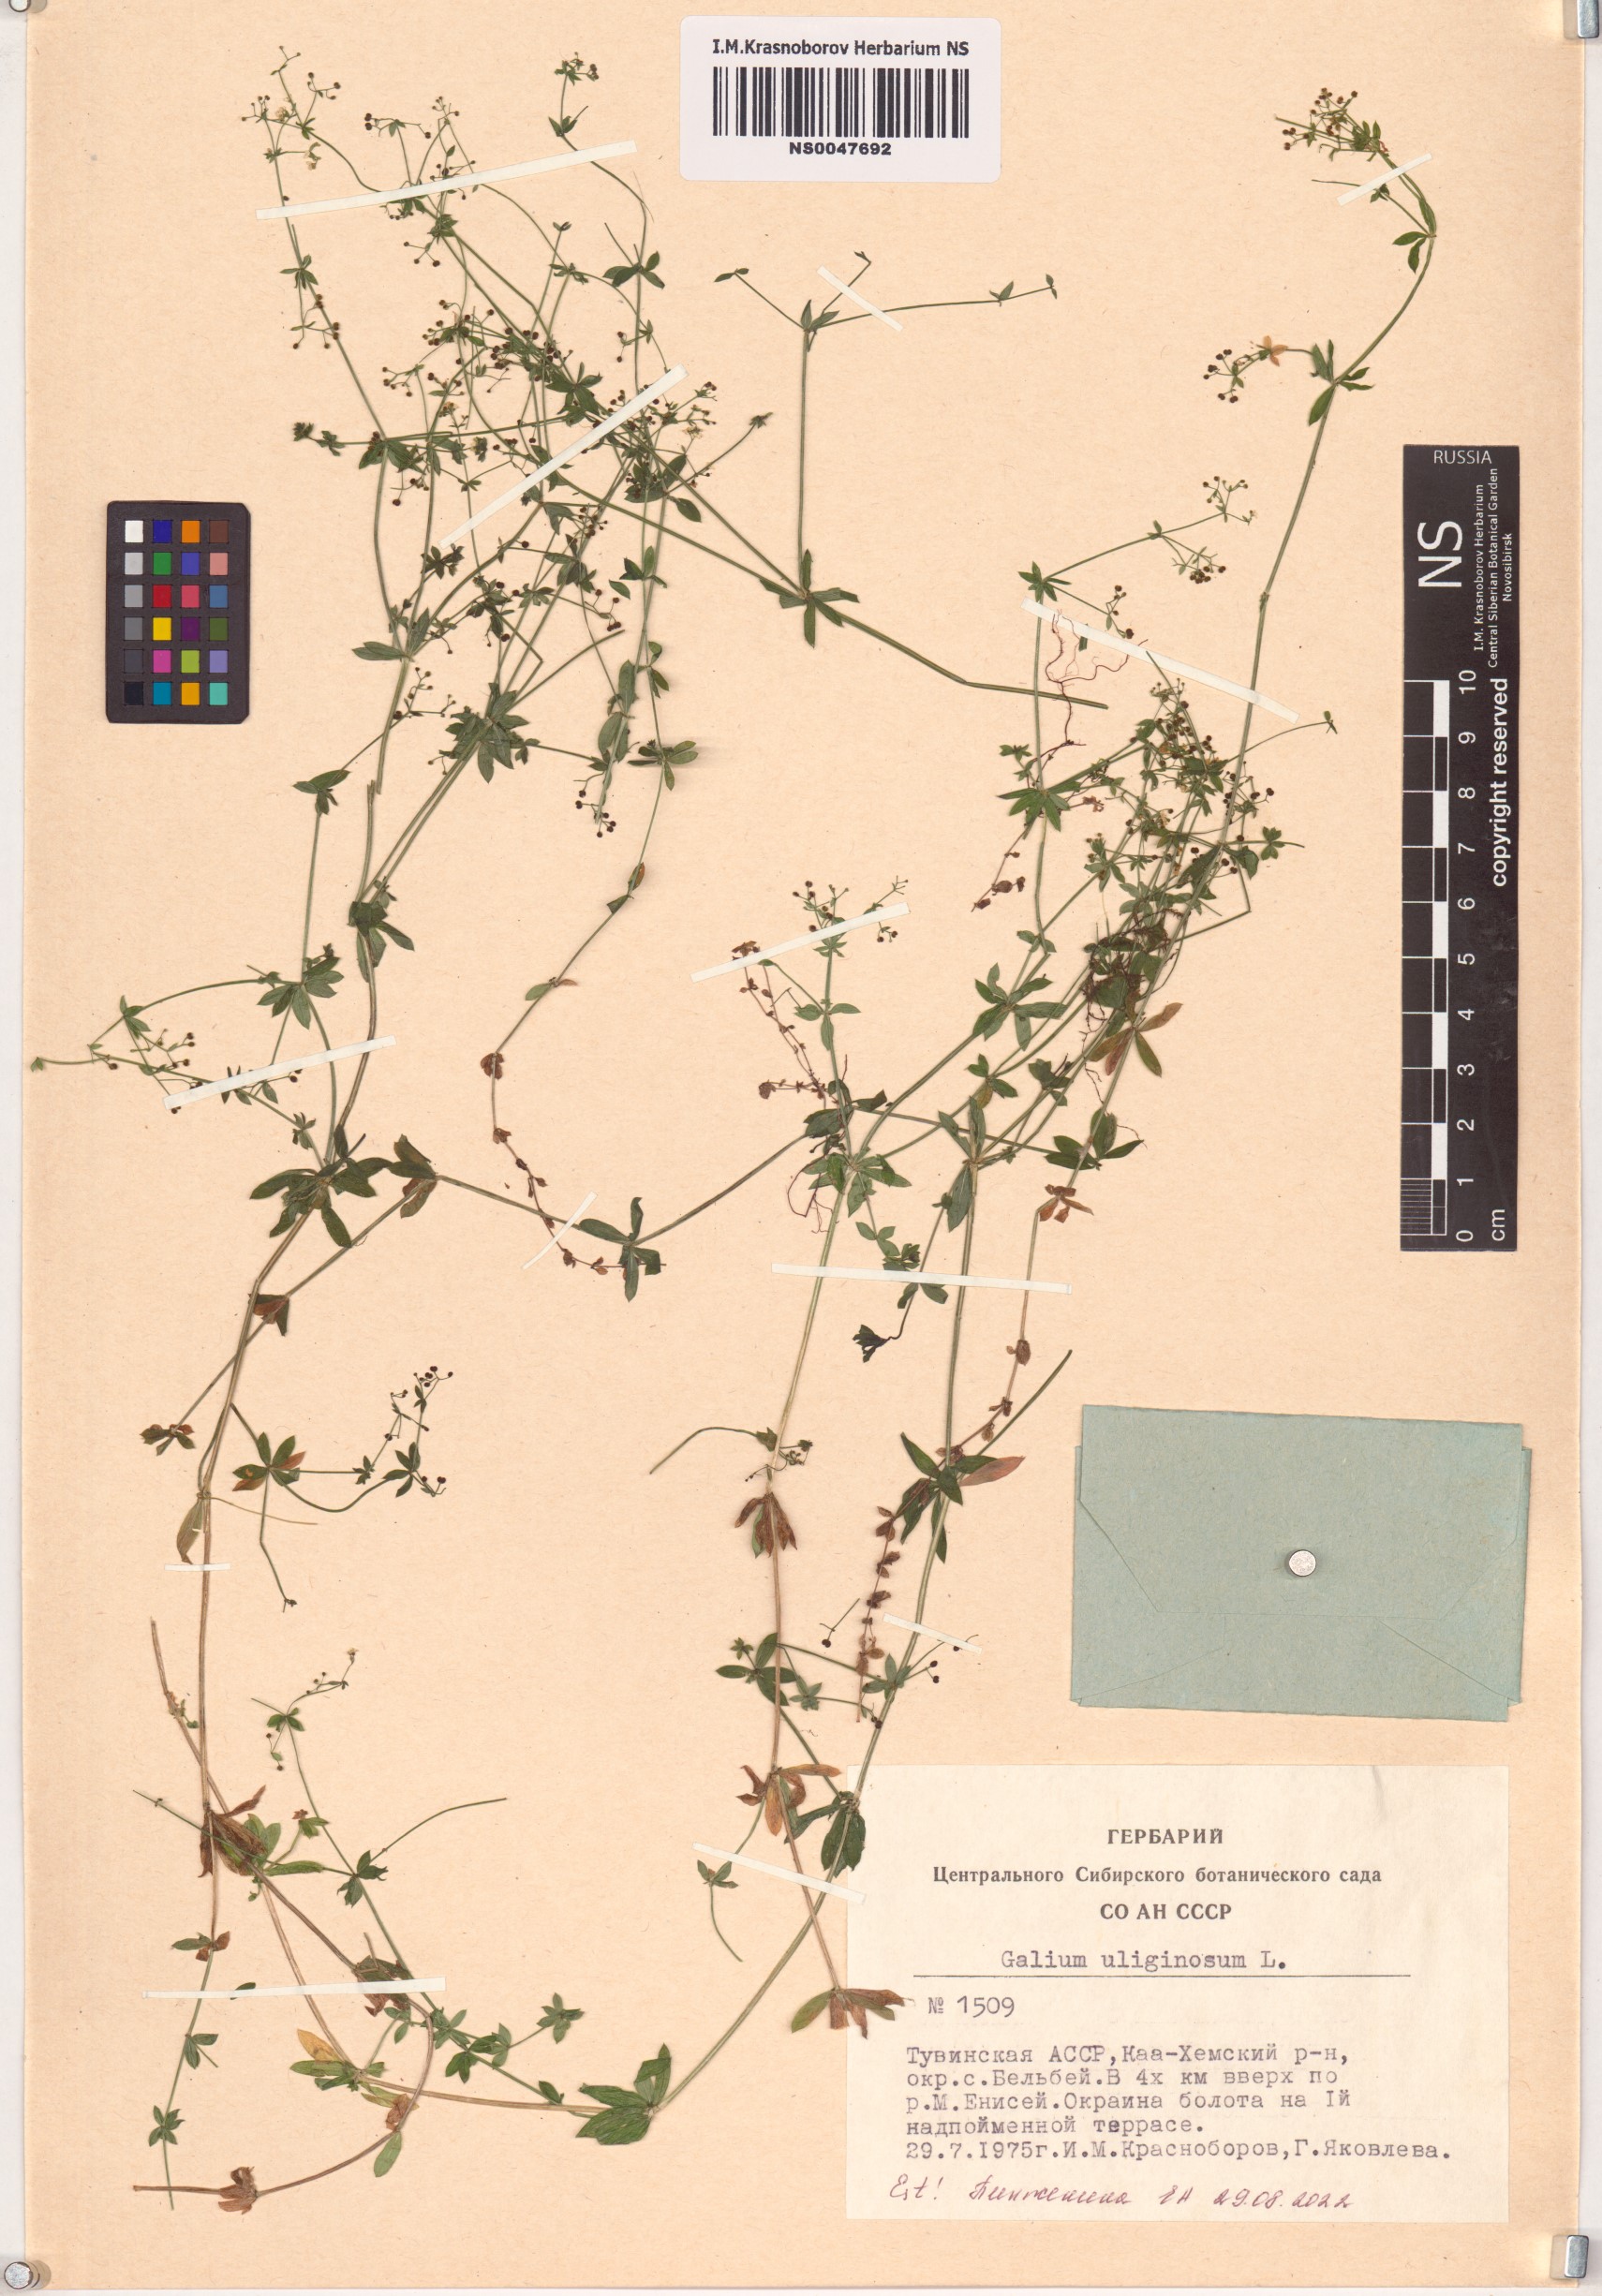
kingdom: Plantae
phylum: Tracheophyta
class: Magnoliopsida
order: Gentianales
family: Rubiaceae
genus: Galium
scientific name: Galium uliginosum
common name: Fen bedstraw
